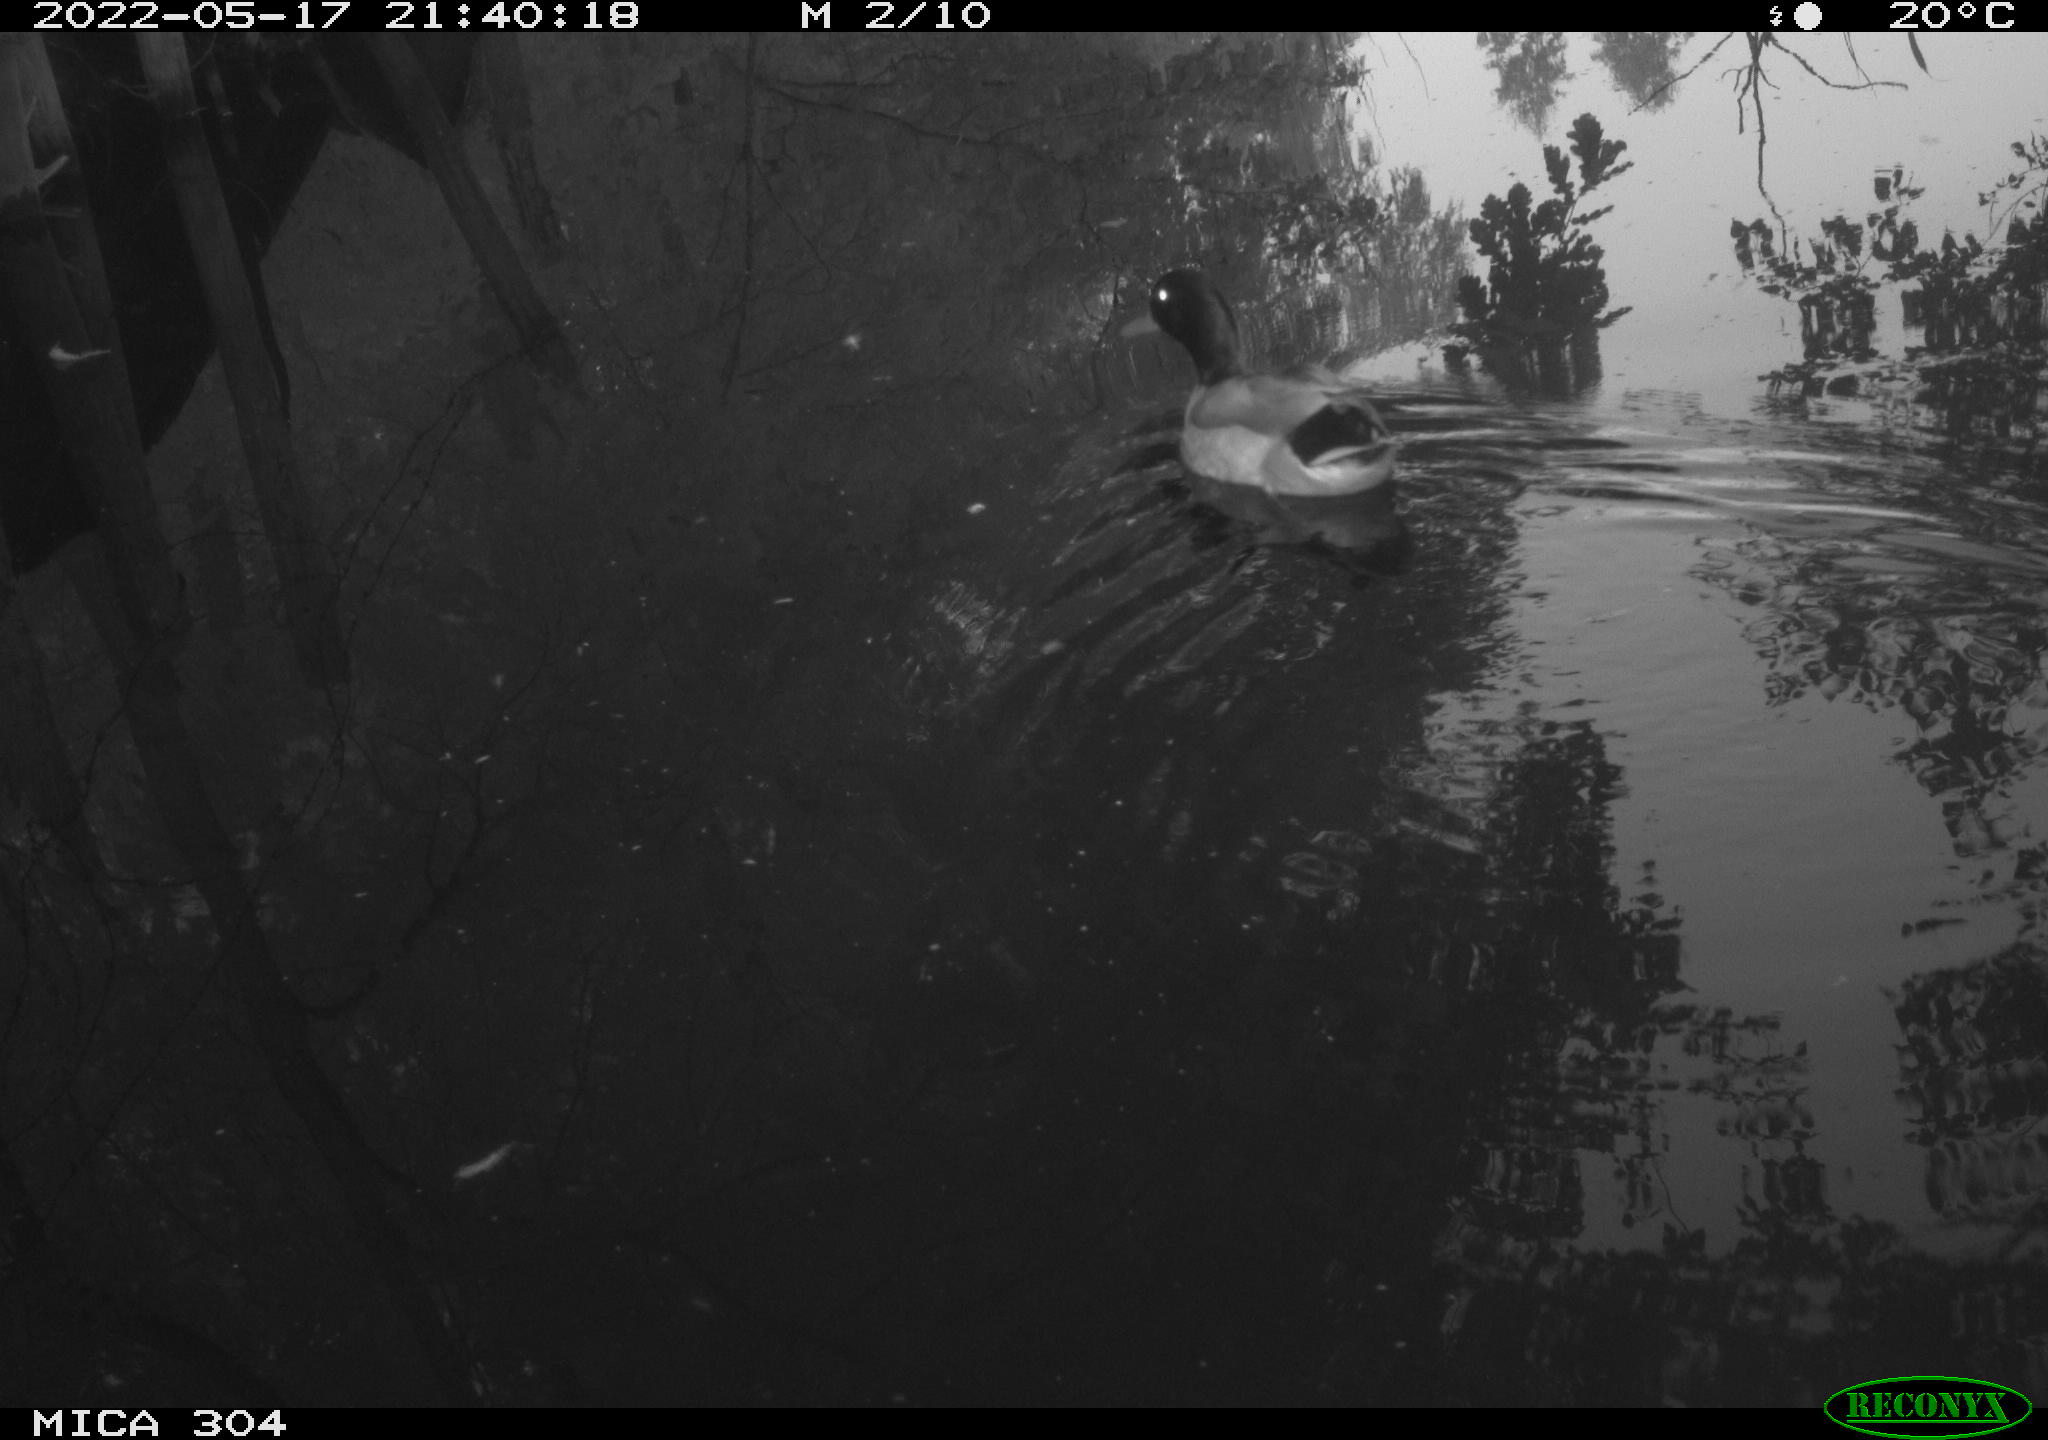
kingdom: Animalia
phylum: Chordata
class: Aves
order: Anseriformes
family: Anatidae
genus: Anas
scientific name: Anas platyrhynchos
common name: Mallard
